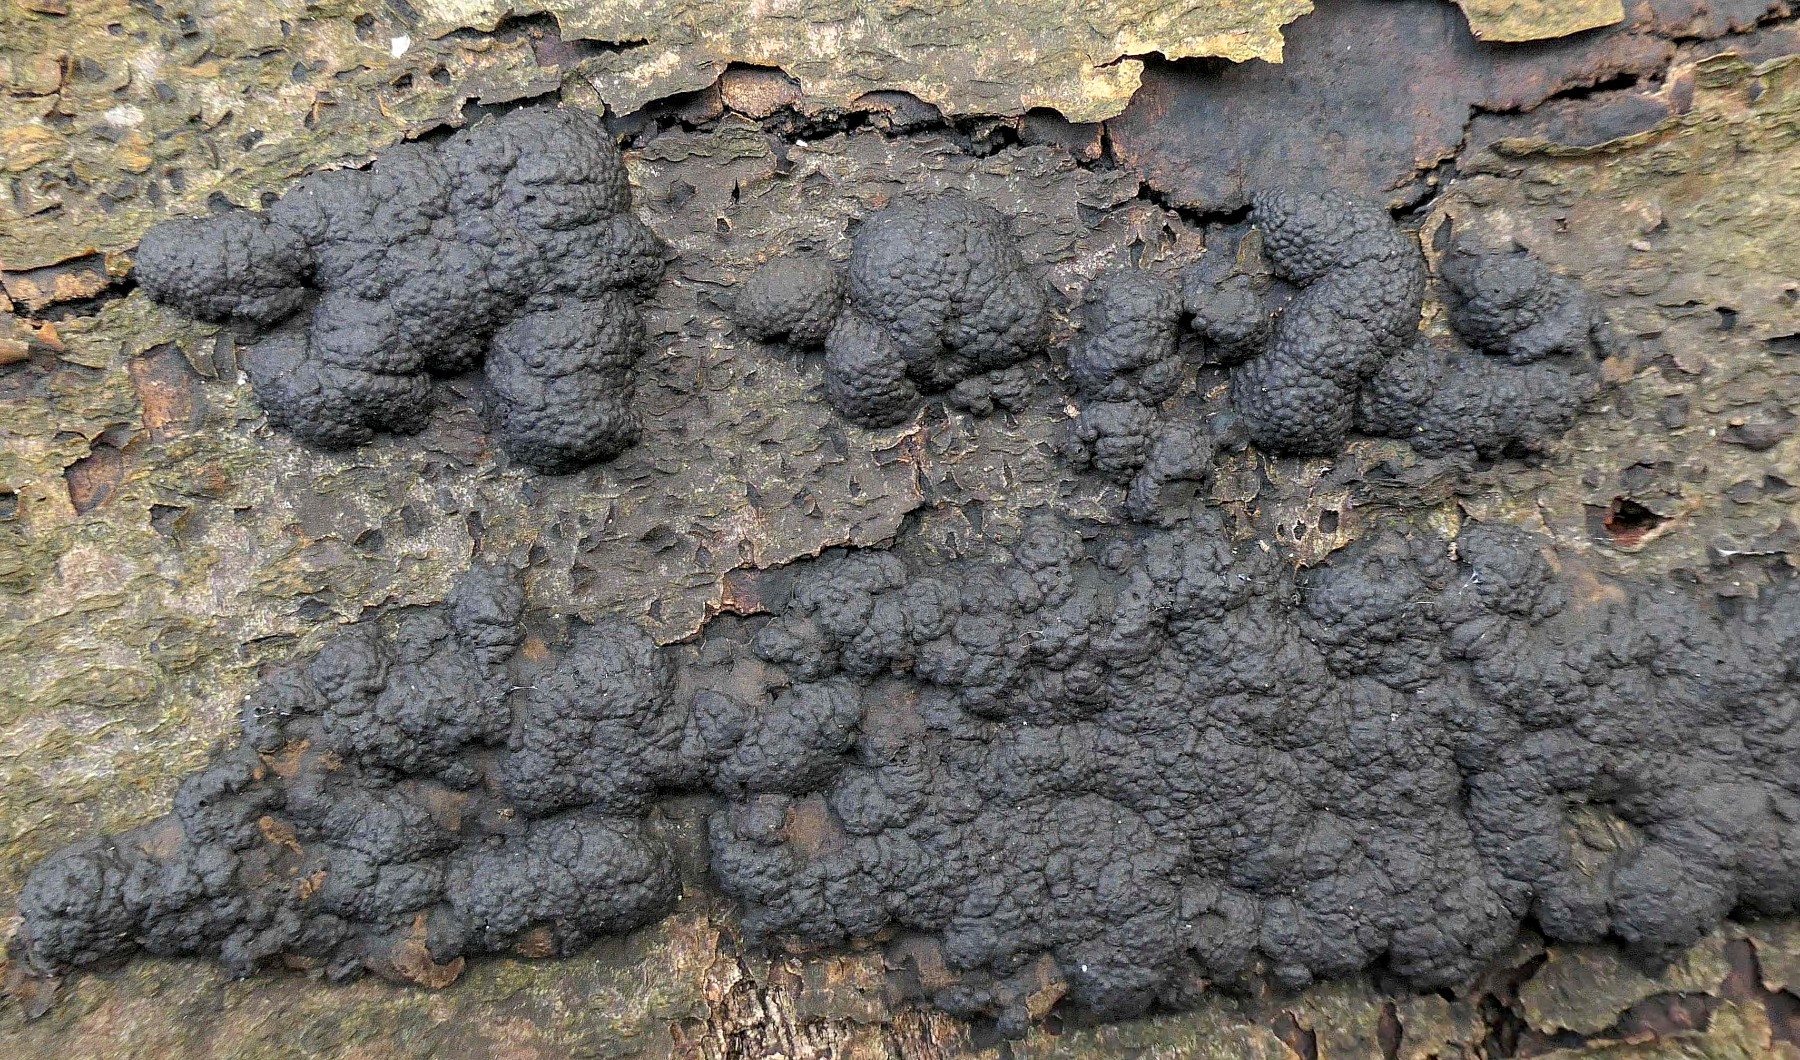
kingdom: Fungi
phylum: Ascomycota
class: Sordariomycetes
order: Xylariales
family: Hypoxylaceae
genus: Jackrogersella
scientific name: Jackrogersella cohaerens
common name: sammenflydende kulbær
